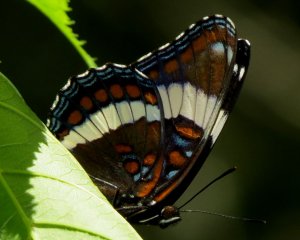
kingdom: Animalia
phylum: Arthropoda
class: Insecta
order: Lepidoptera
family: Nymphalidae
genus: Limenitis
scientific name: Limenitis arthemis
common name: Red-spotted Admiral
